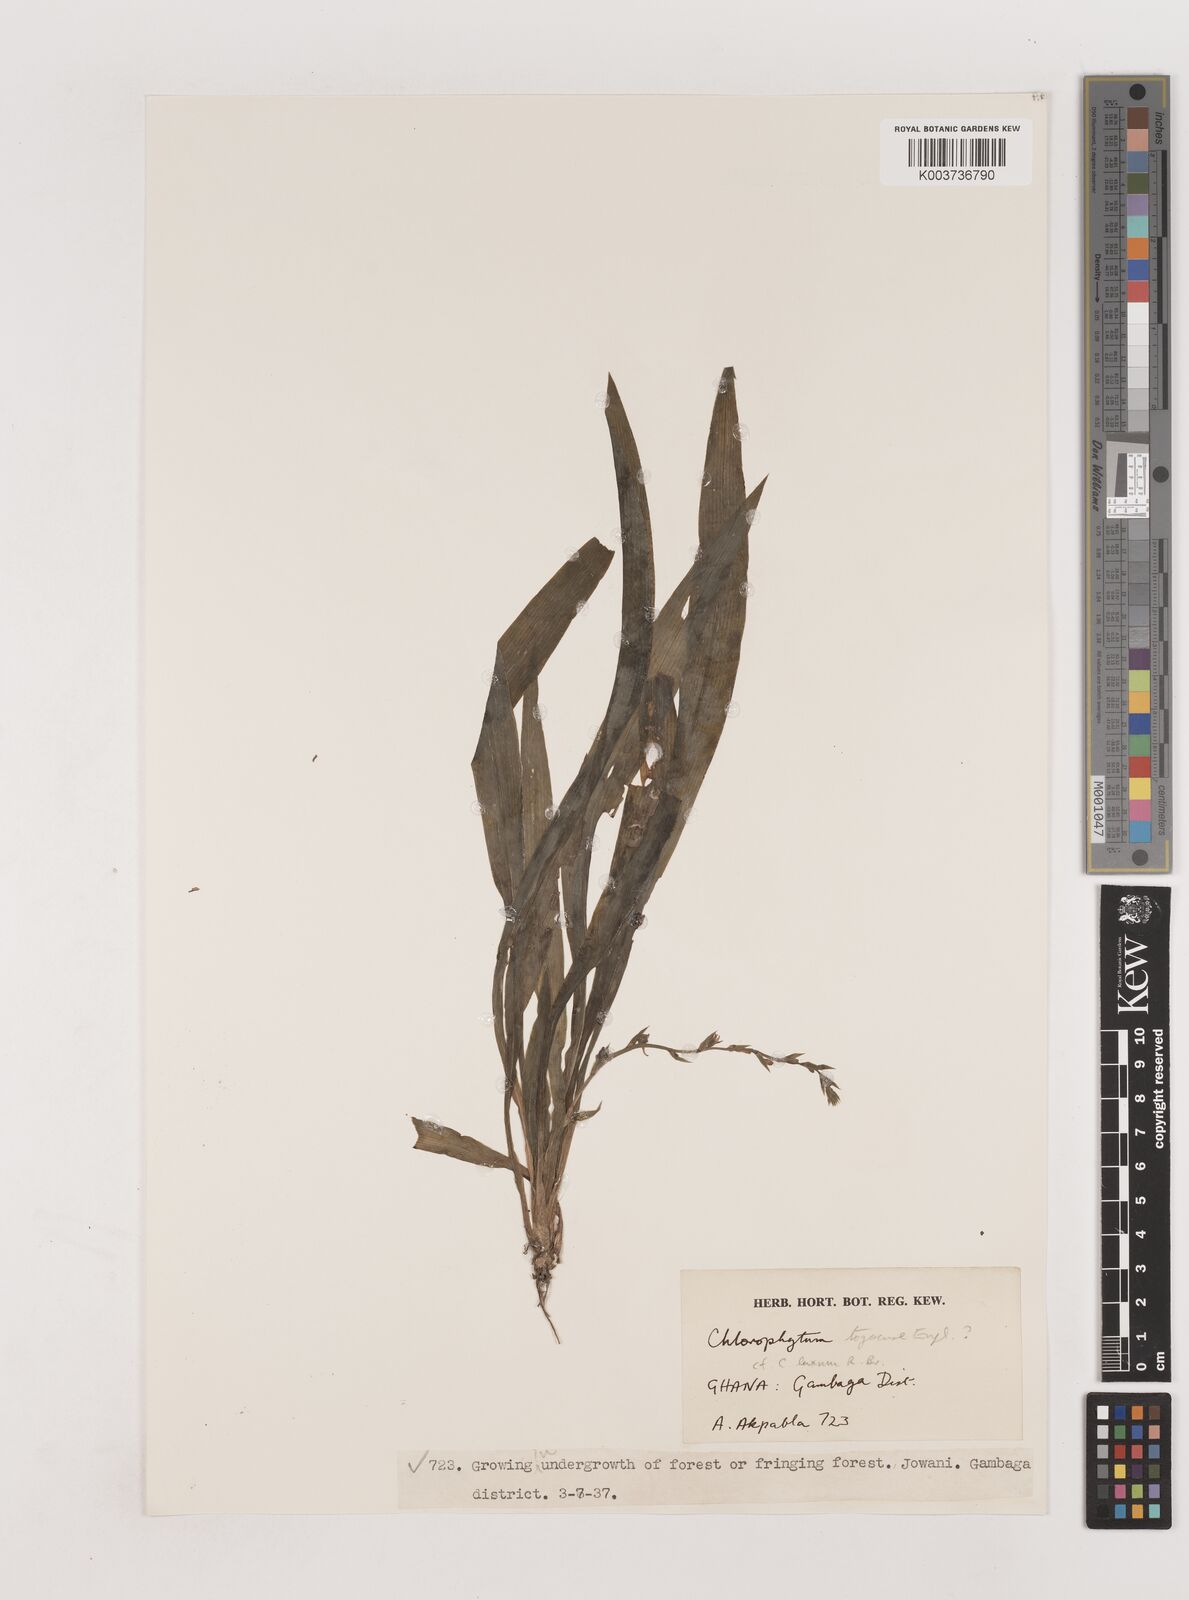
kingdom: Plantae
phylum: Tracheophyta
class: Liliopsida
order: Asparagales
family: Asparagaceae
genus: Chlorophytum
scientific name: Chlorophytum lancifolium
